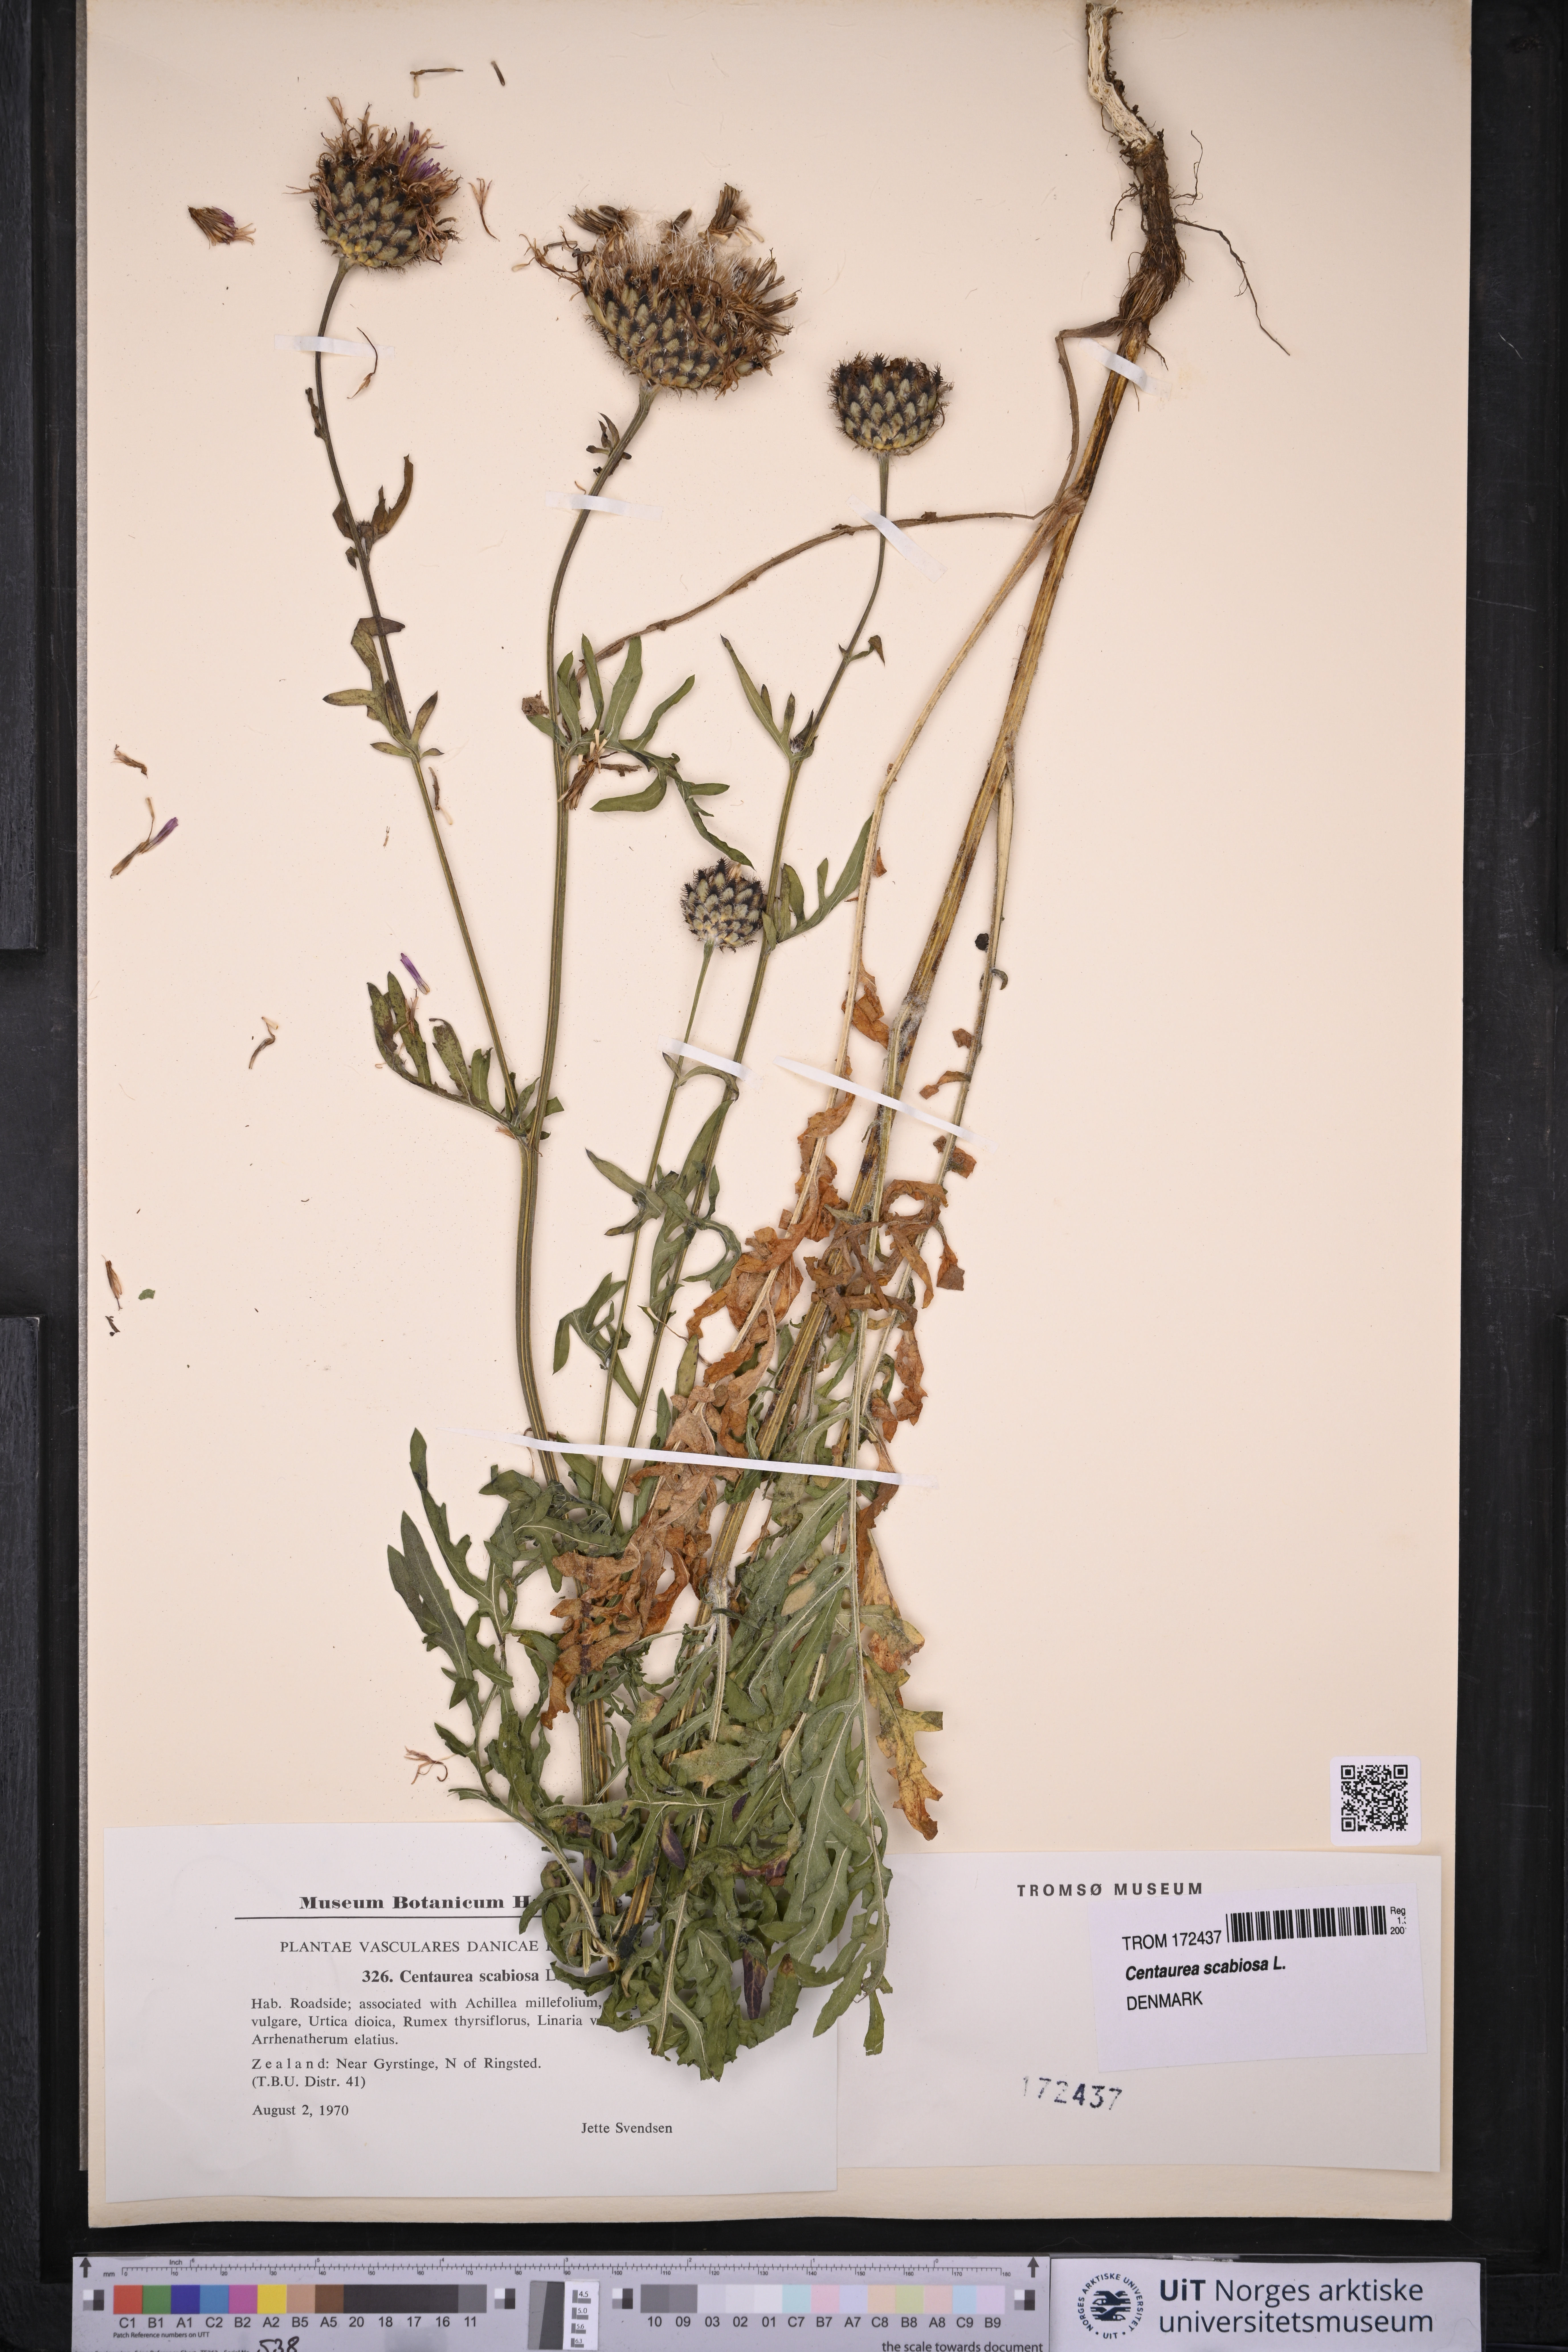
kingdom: Plantae
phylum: Tracheophyta
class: Magnoliopsida
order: Asterales
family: Asteraceae
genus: Centaurea
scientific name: Centaurea scabiosa
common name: Greater knapweed
